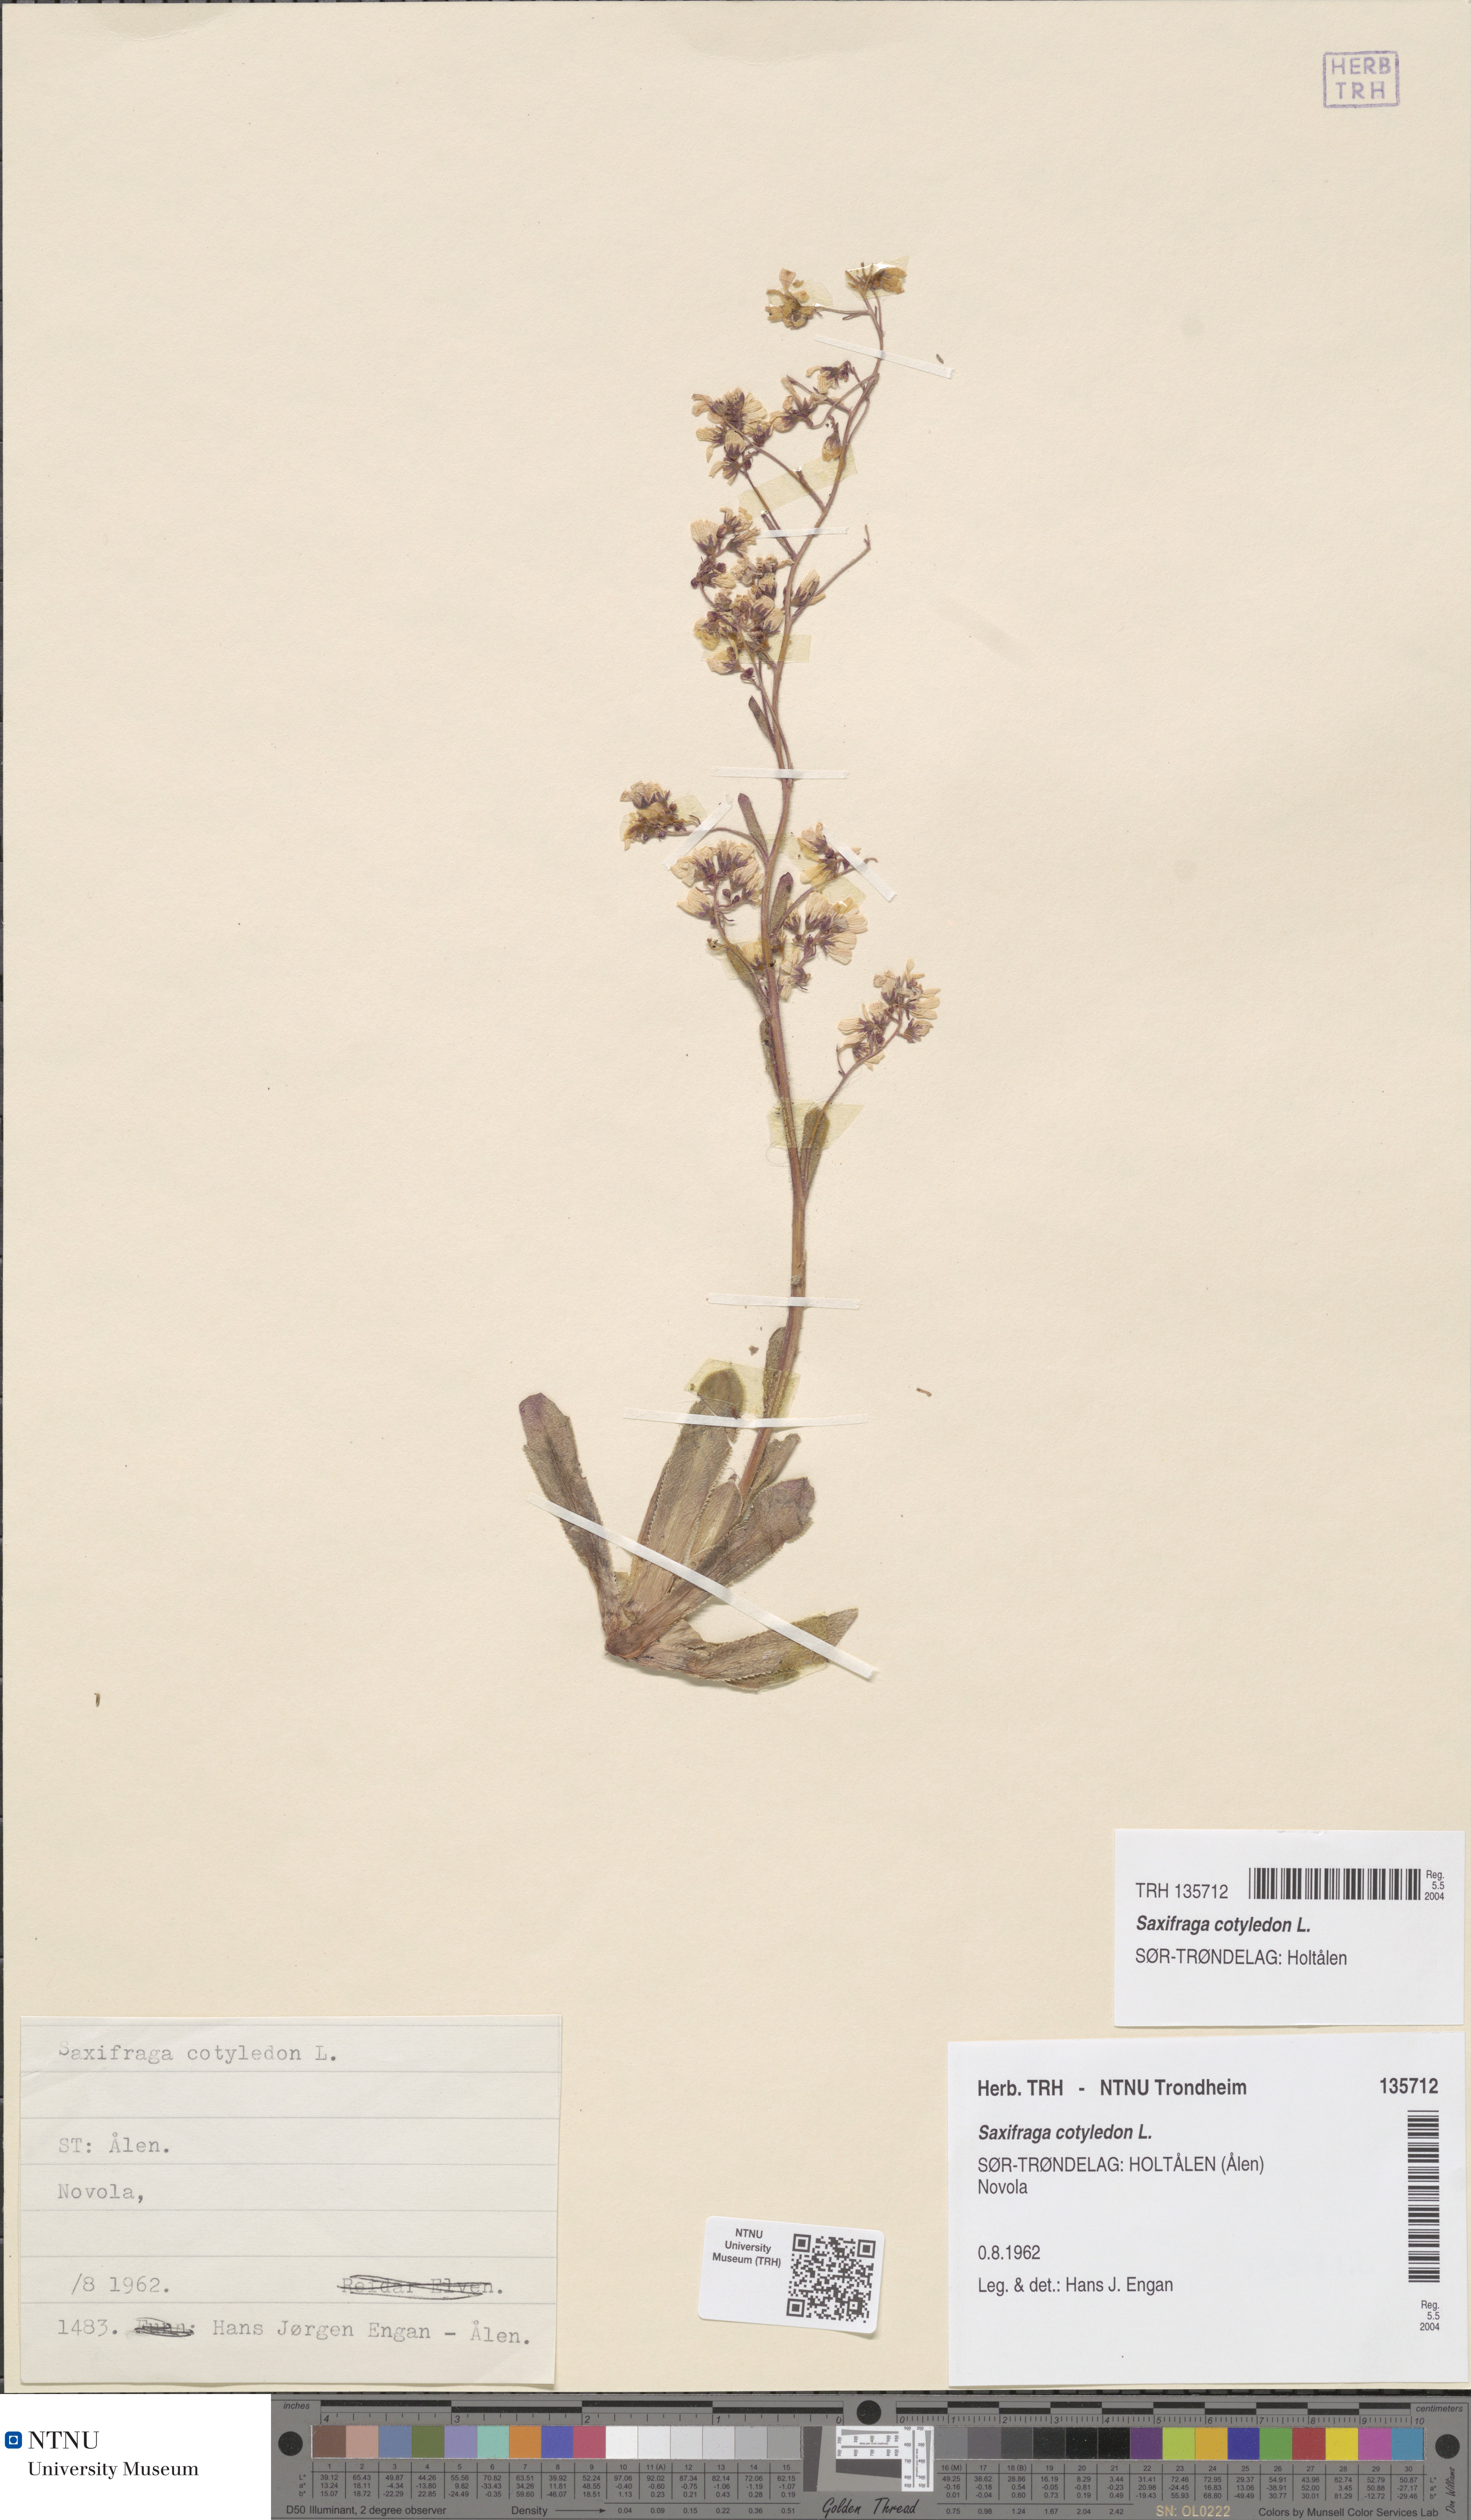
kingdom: Plantae
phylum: Tracheophyta
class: Magnoliopsida
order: Saxifragales
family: Saxifragaceae
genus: Saxifraga
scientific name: Saxifraga cotyledon
